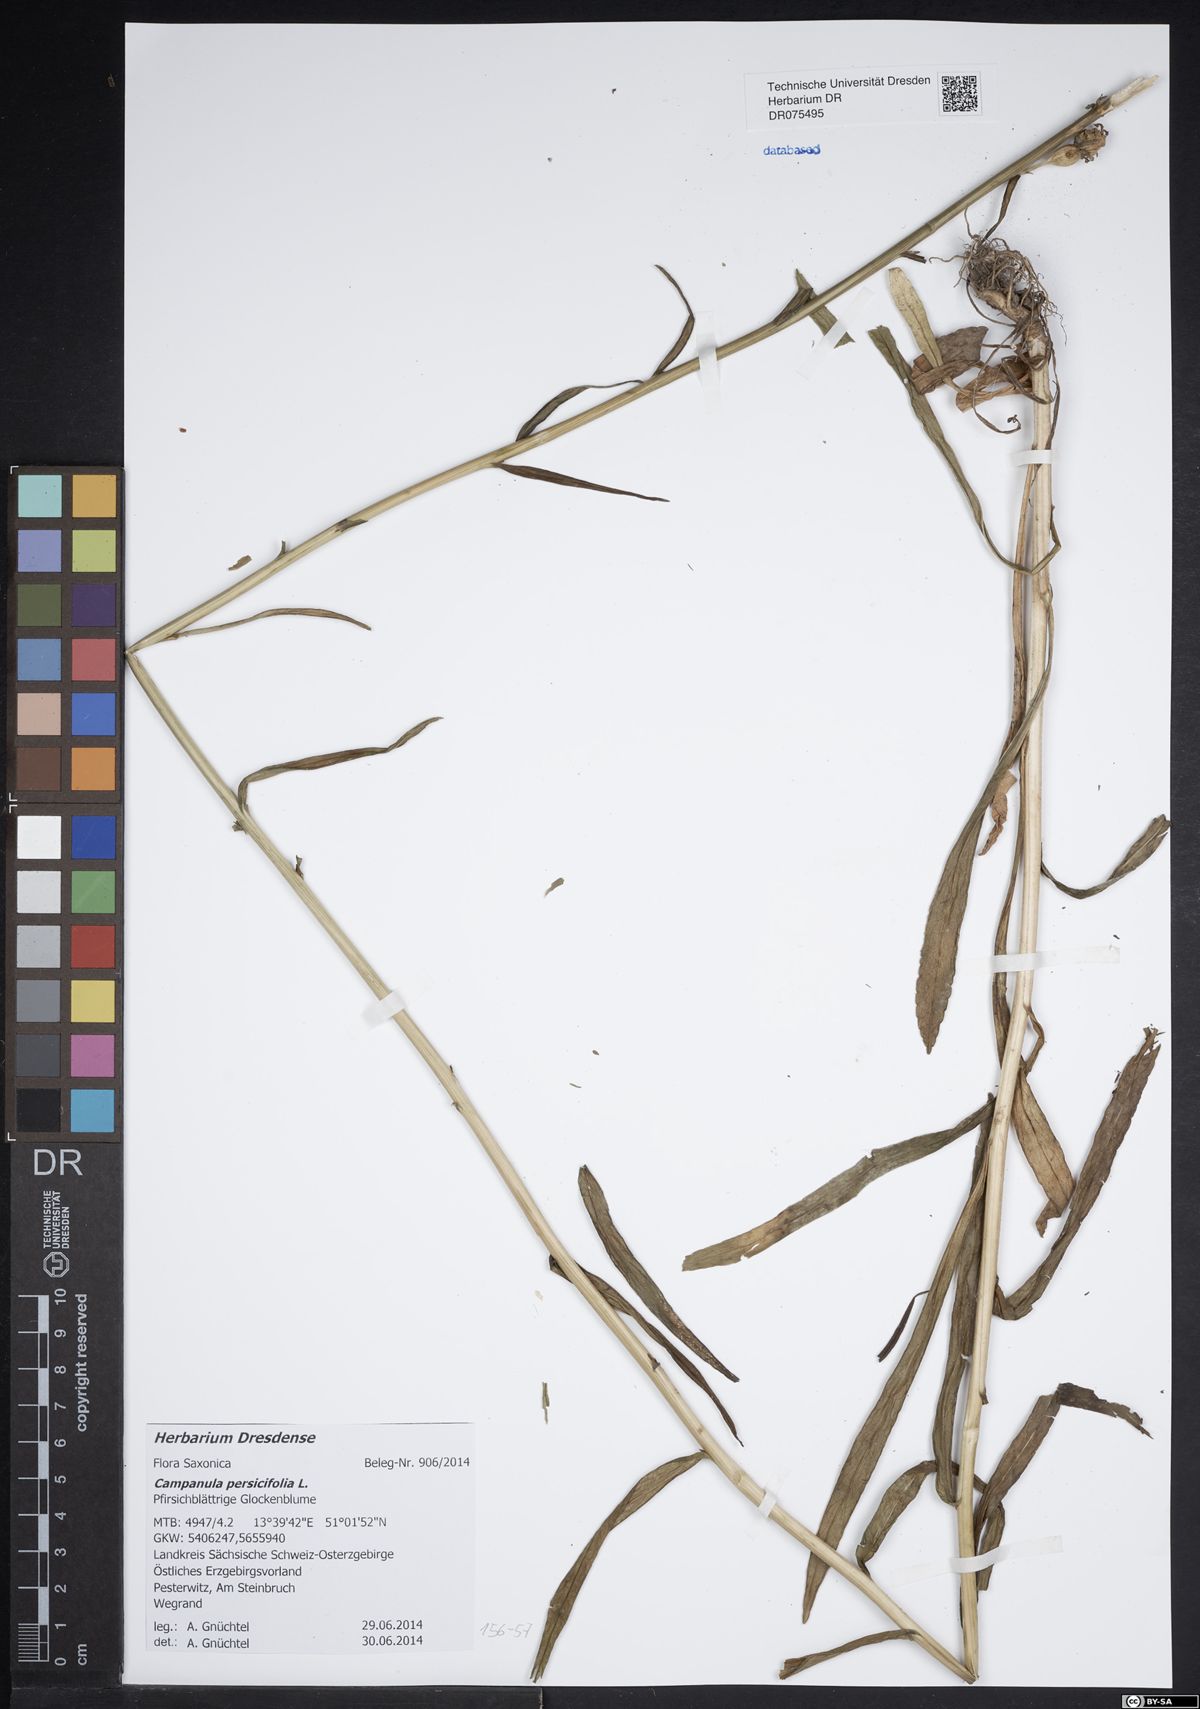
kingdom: Plantae
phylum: Tracheophyta
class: Magnoliopsida
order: Asterales
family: Campanulaceae
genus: Campanula
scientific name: Campanula persicifolia
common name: Peach-leaved bellflower
